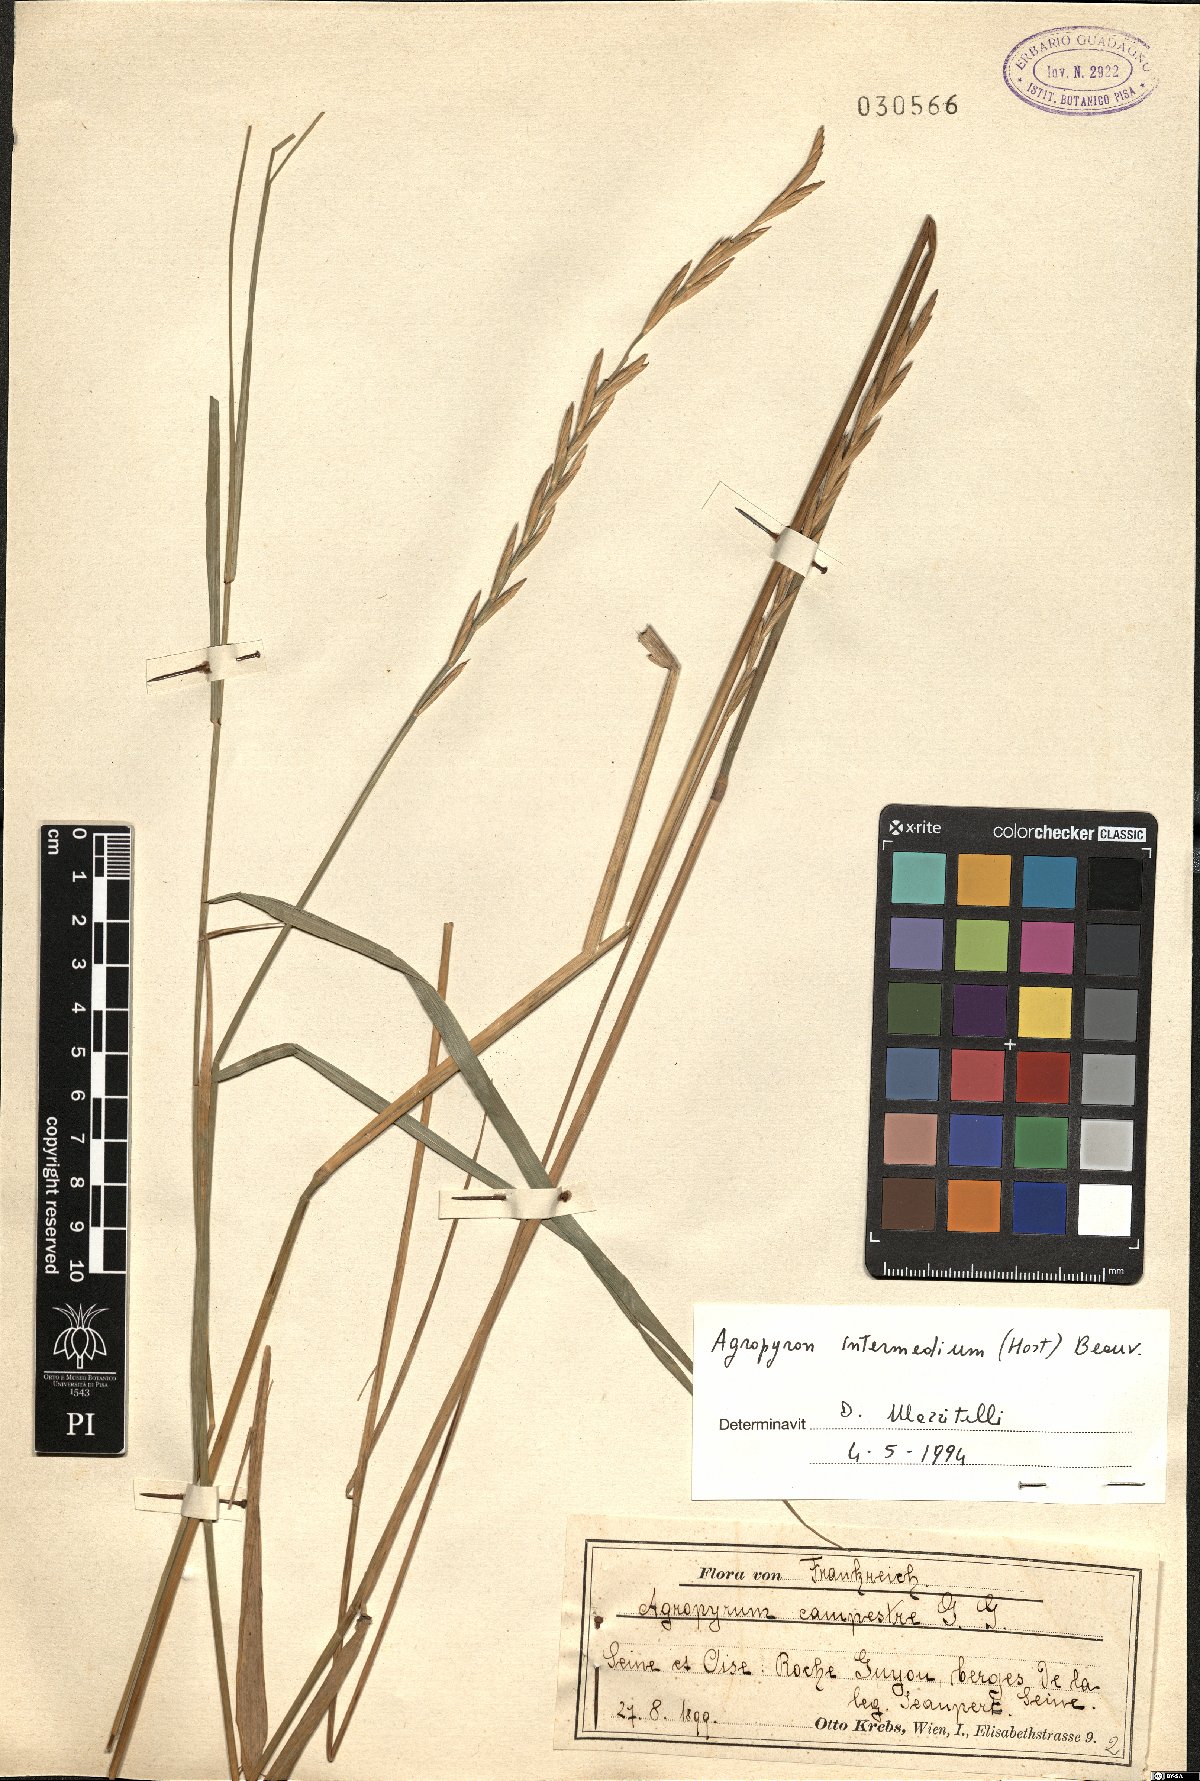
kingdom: Plantae
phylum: Tracheophyta
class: Liliopsida
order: Poales
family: Poaceae
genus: Thinopyrum
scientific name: Thinopyrum intermedium
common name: Intermediate wheatgrass
